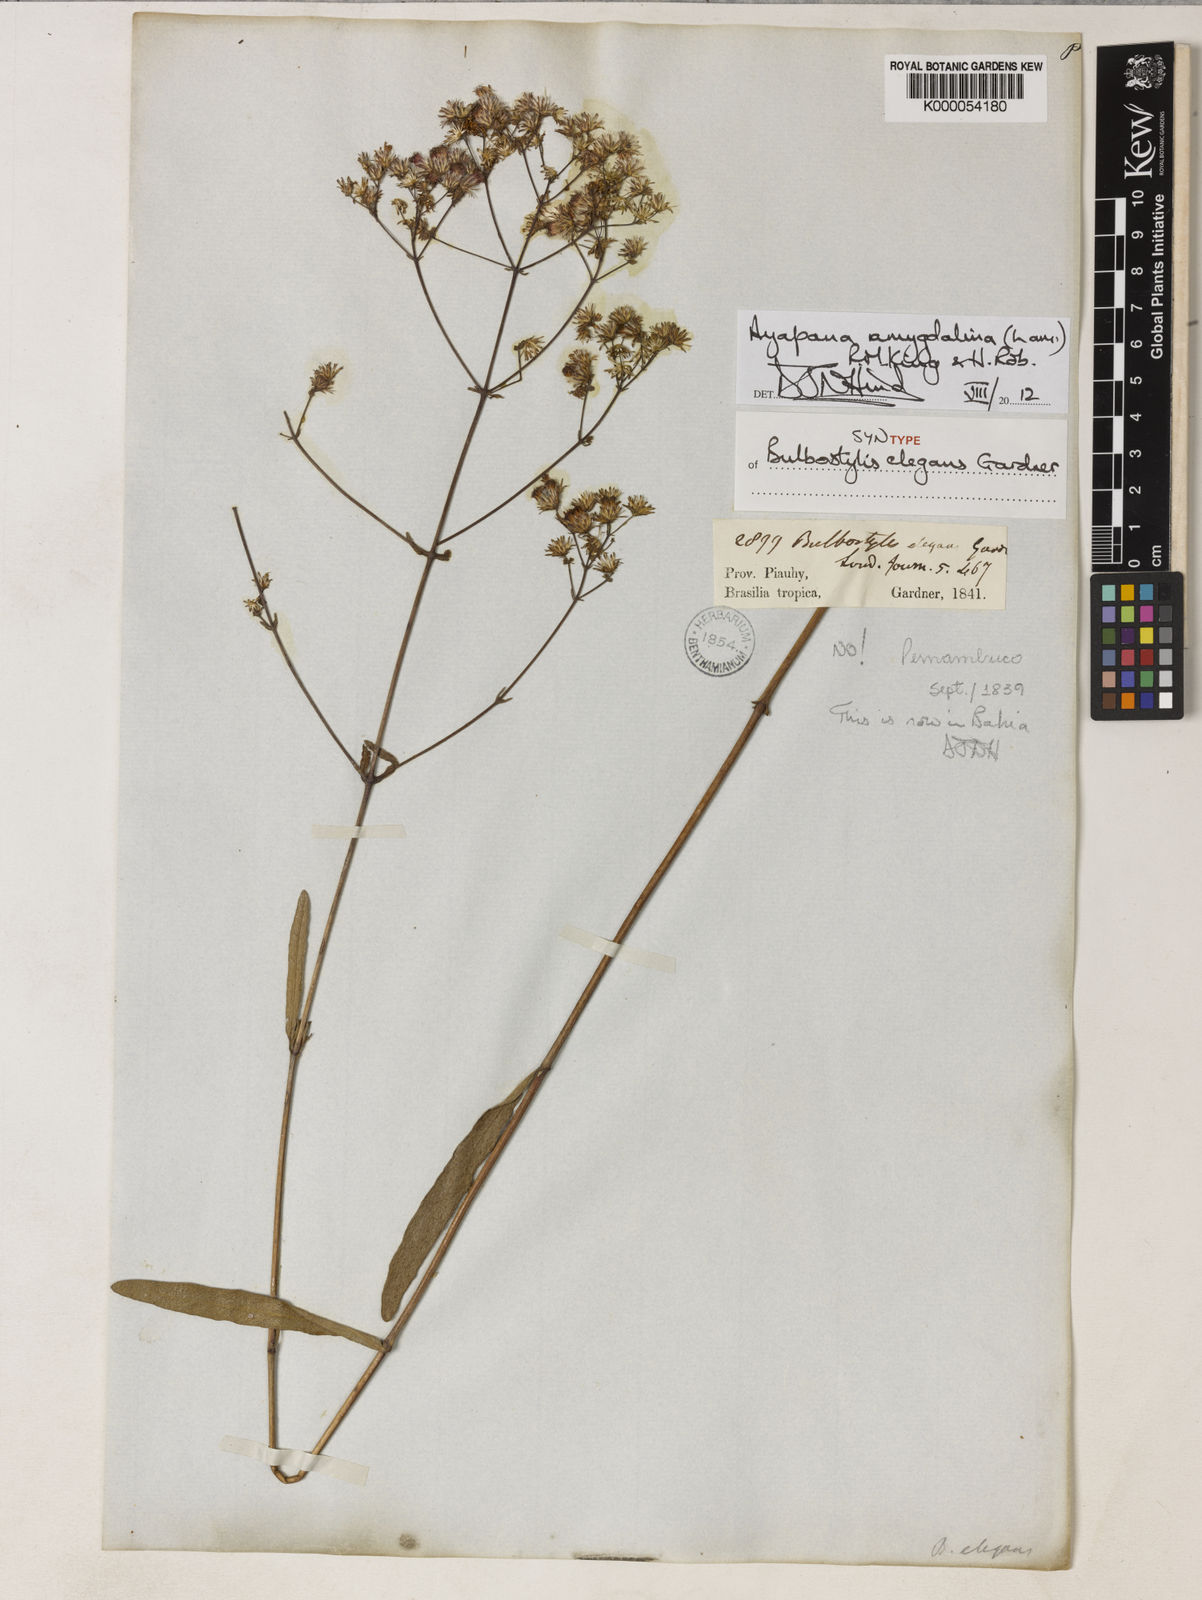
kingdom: Plantae
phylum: Tracheophyta
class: Magnoliopsida
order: Asterales
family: Asteraceae
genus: Ayapana
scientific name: Ayapana amygdalina
